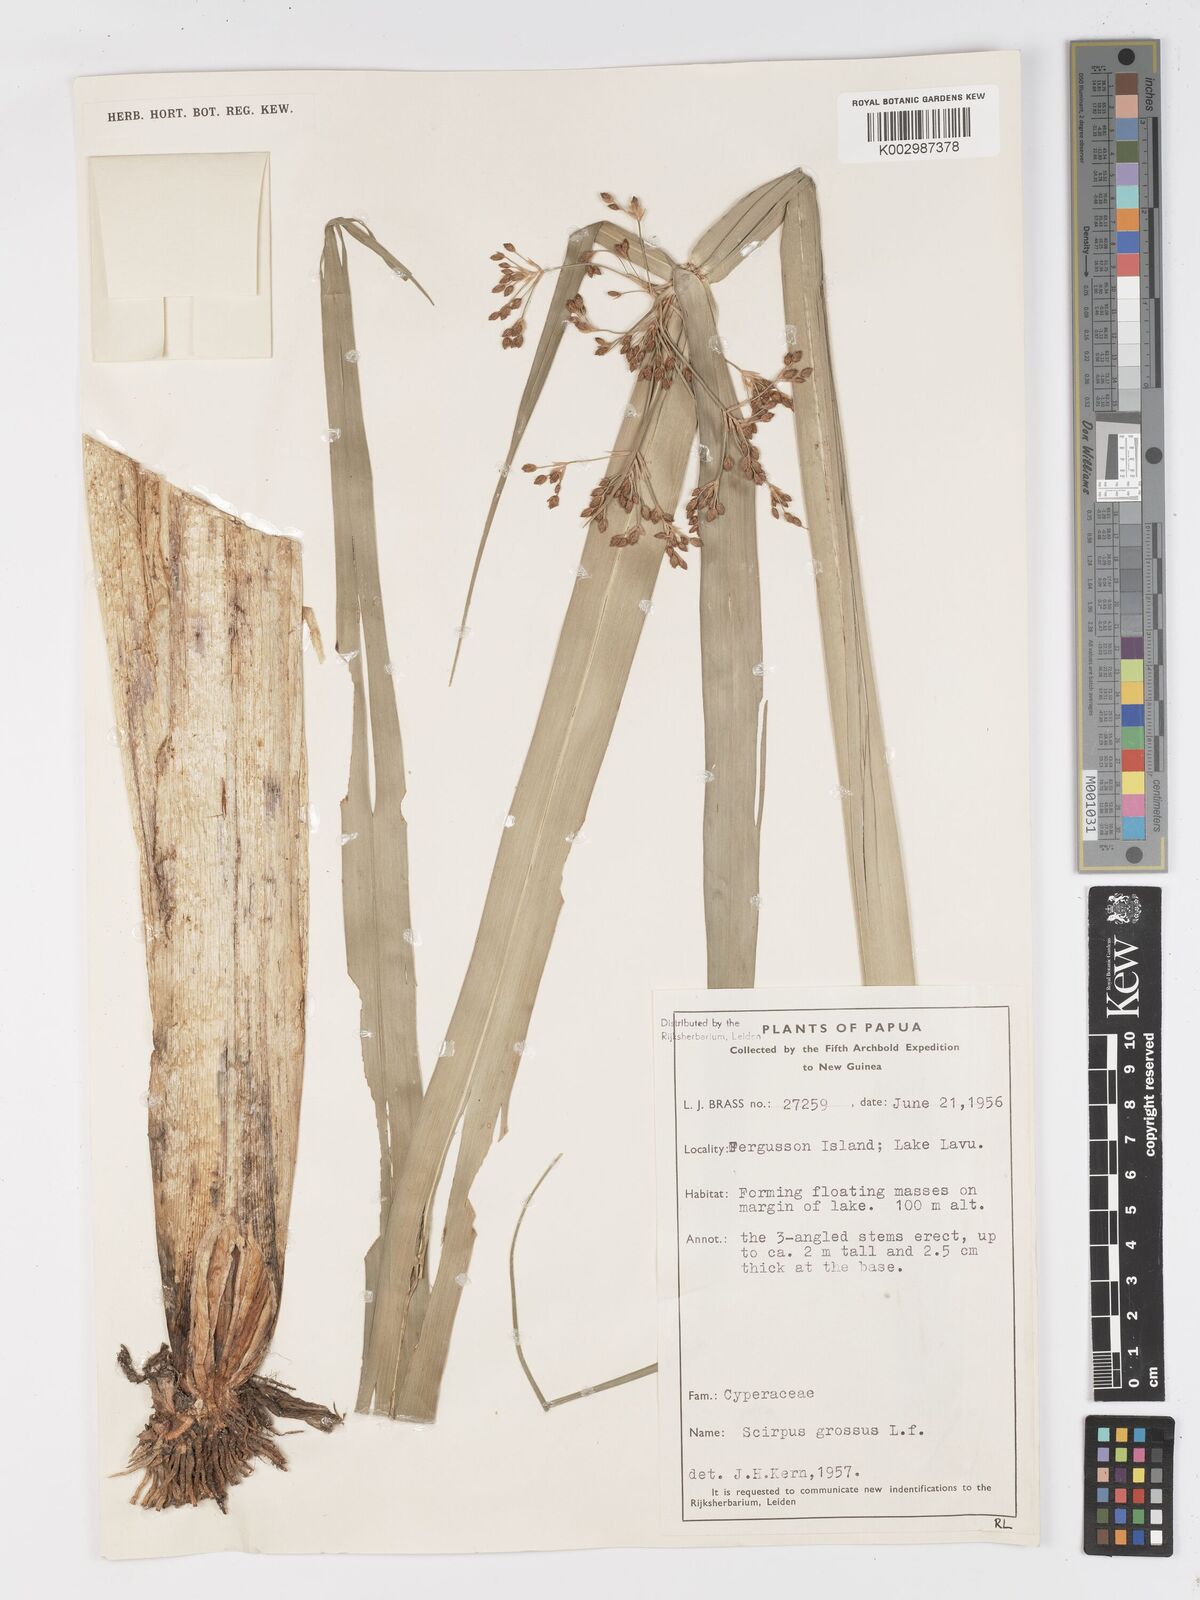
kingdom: Plantae
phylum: Tracheophyta
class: Liliopsida
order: Poales
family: Cyperaceae
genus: Actinoscirpus
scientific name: Actinoscirpus grossus
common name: Giant bur rush
